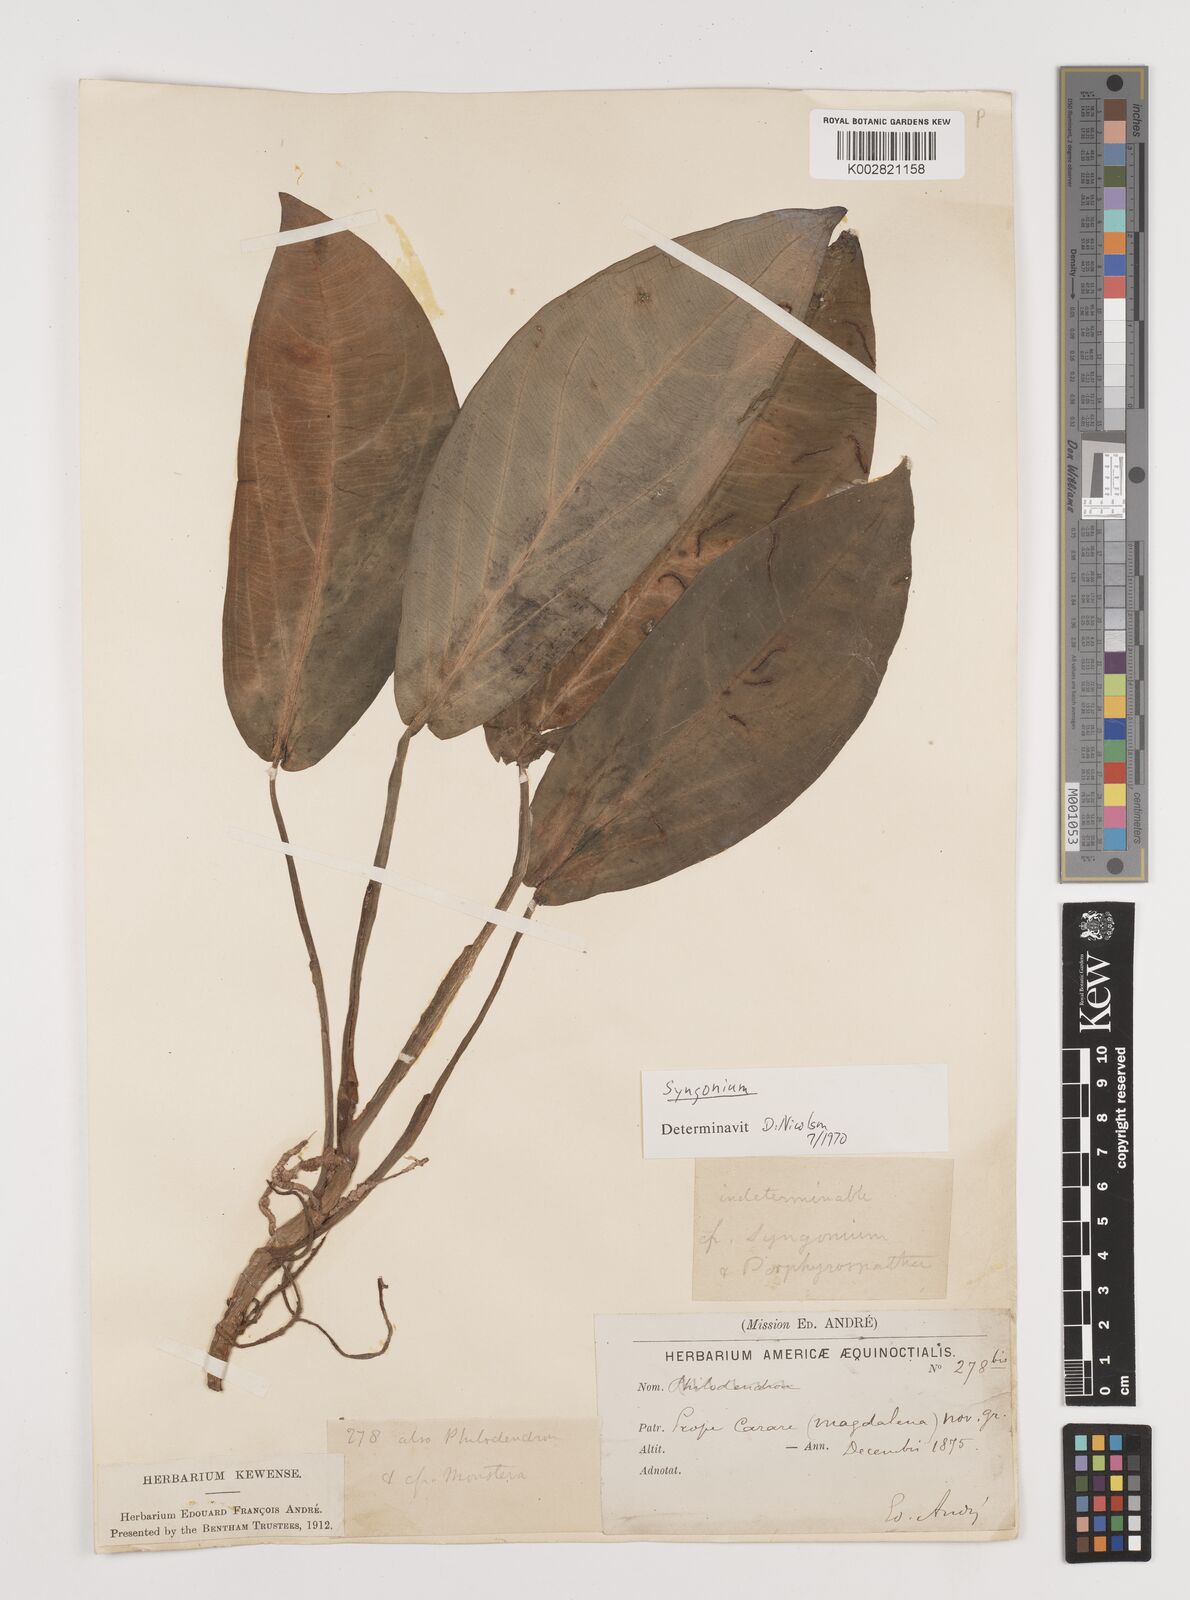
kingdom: Plantae
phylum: Tracheophyta
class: Liliopsida
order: Alismatales
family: Araceae
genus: Syngonium
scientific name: Syngonium schottianum
